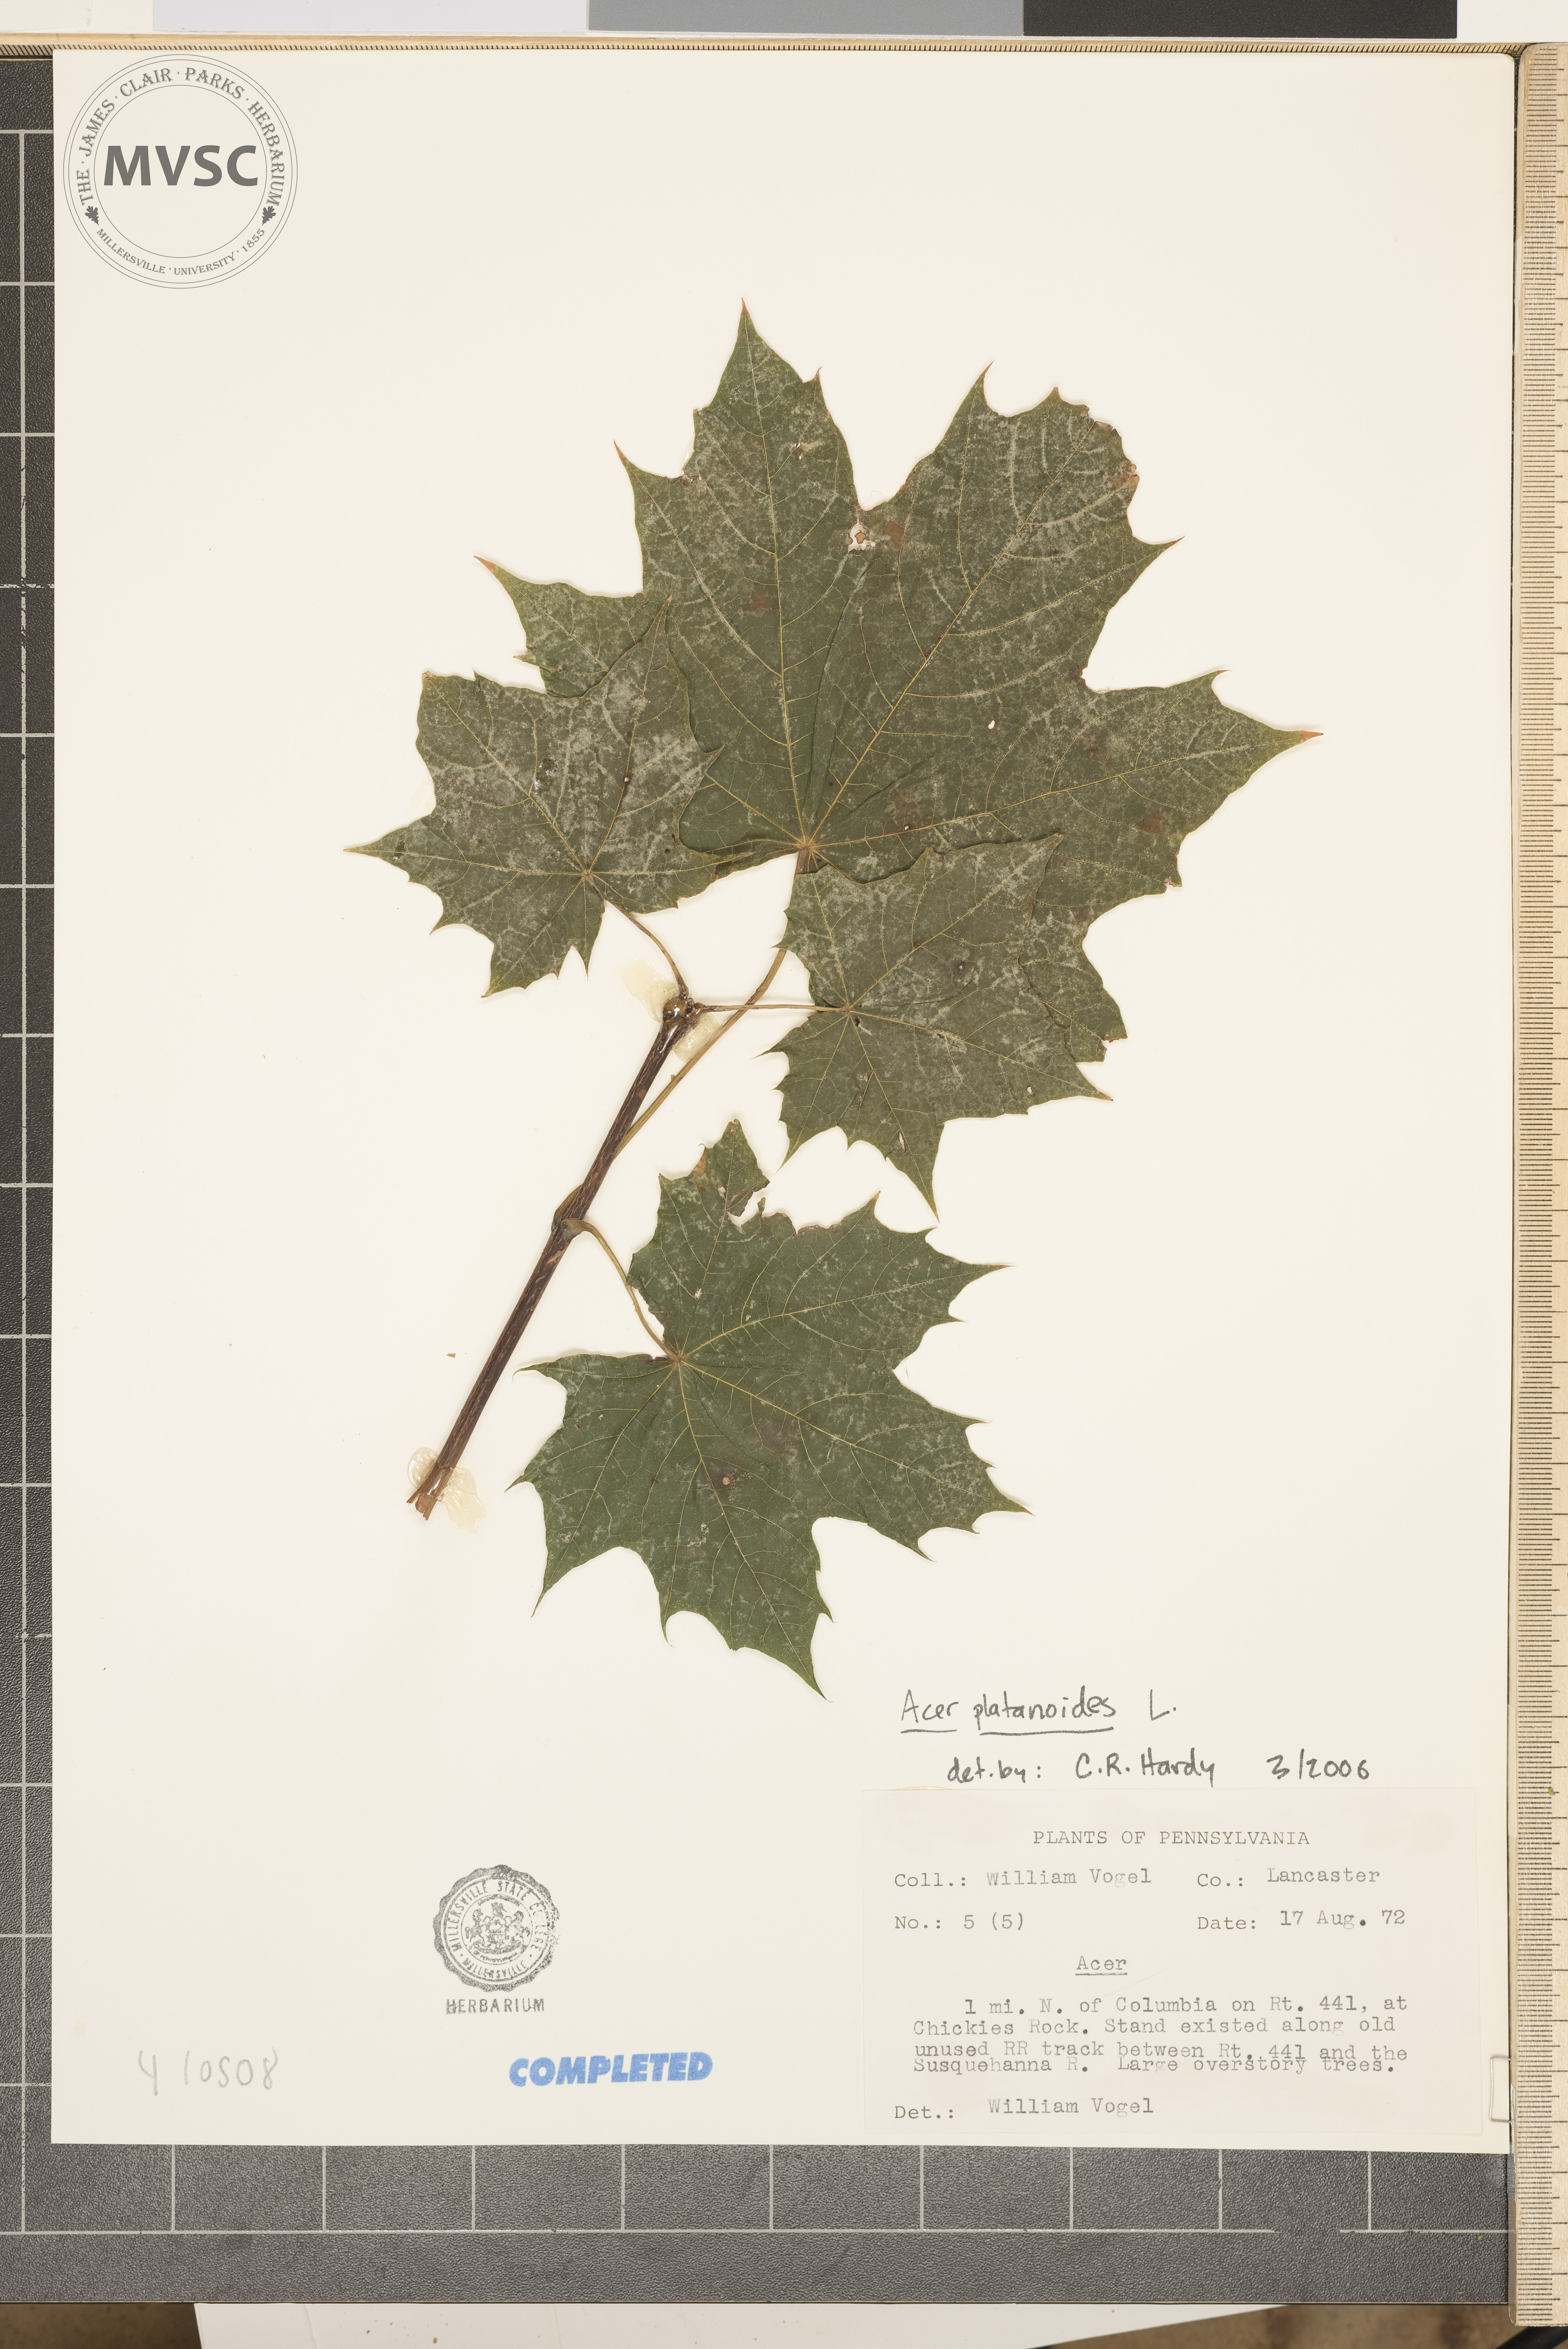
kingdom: Plantae
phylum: Tracheophyta
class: Magnoliopsida
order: Sapindales
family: Sapindaceae
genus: Acer
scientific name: Acer platanoides
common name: Norway maple
